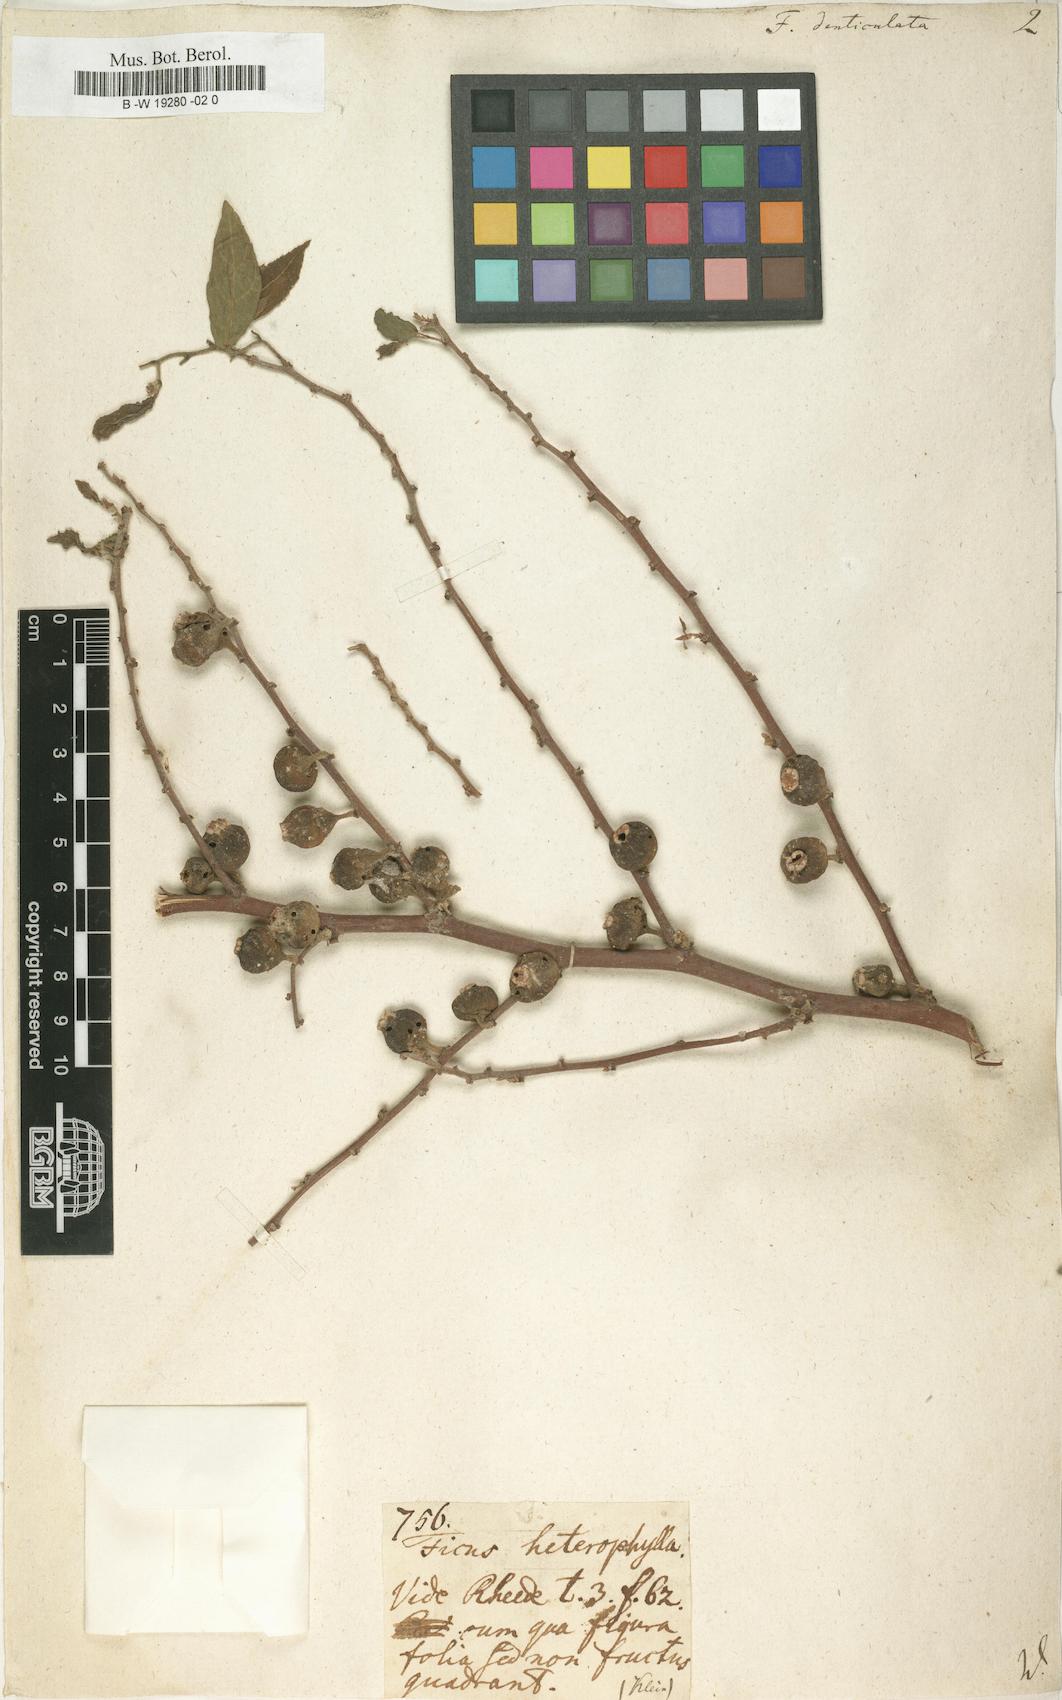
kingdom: Plantae
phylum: Tracheophyta
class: Magnoliopsida
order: Rosales
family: Moraceae
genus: Ficus
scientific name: Ficus heterophylla
